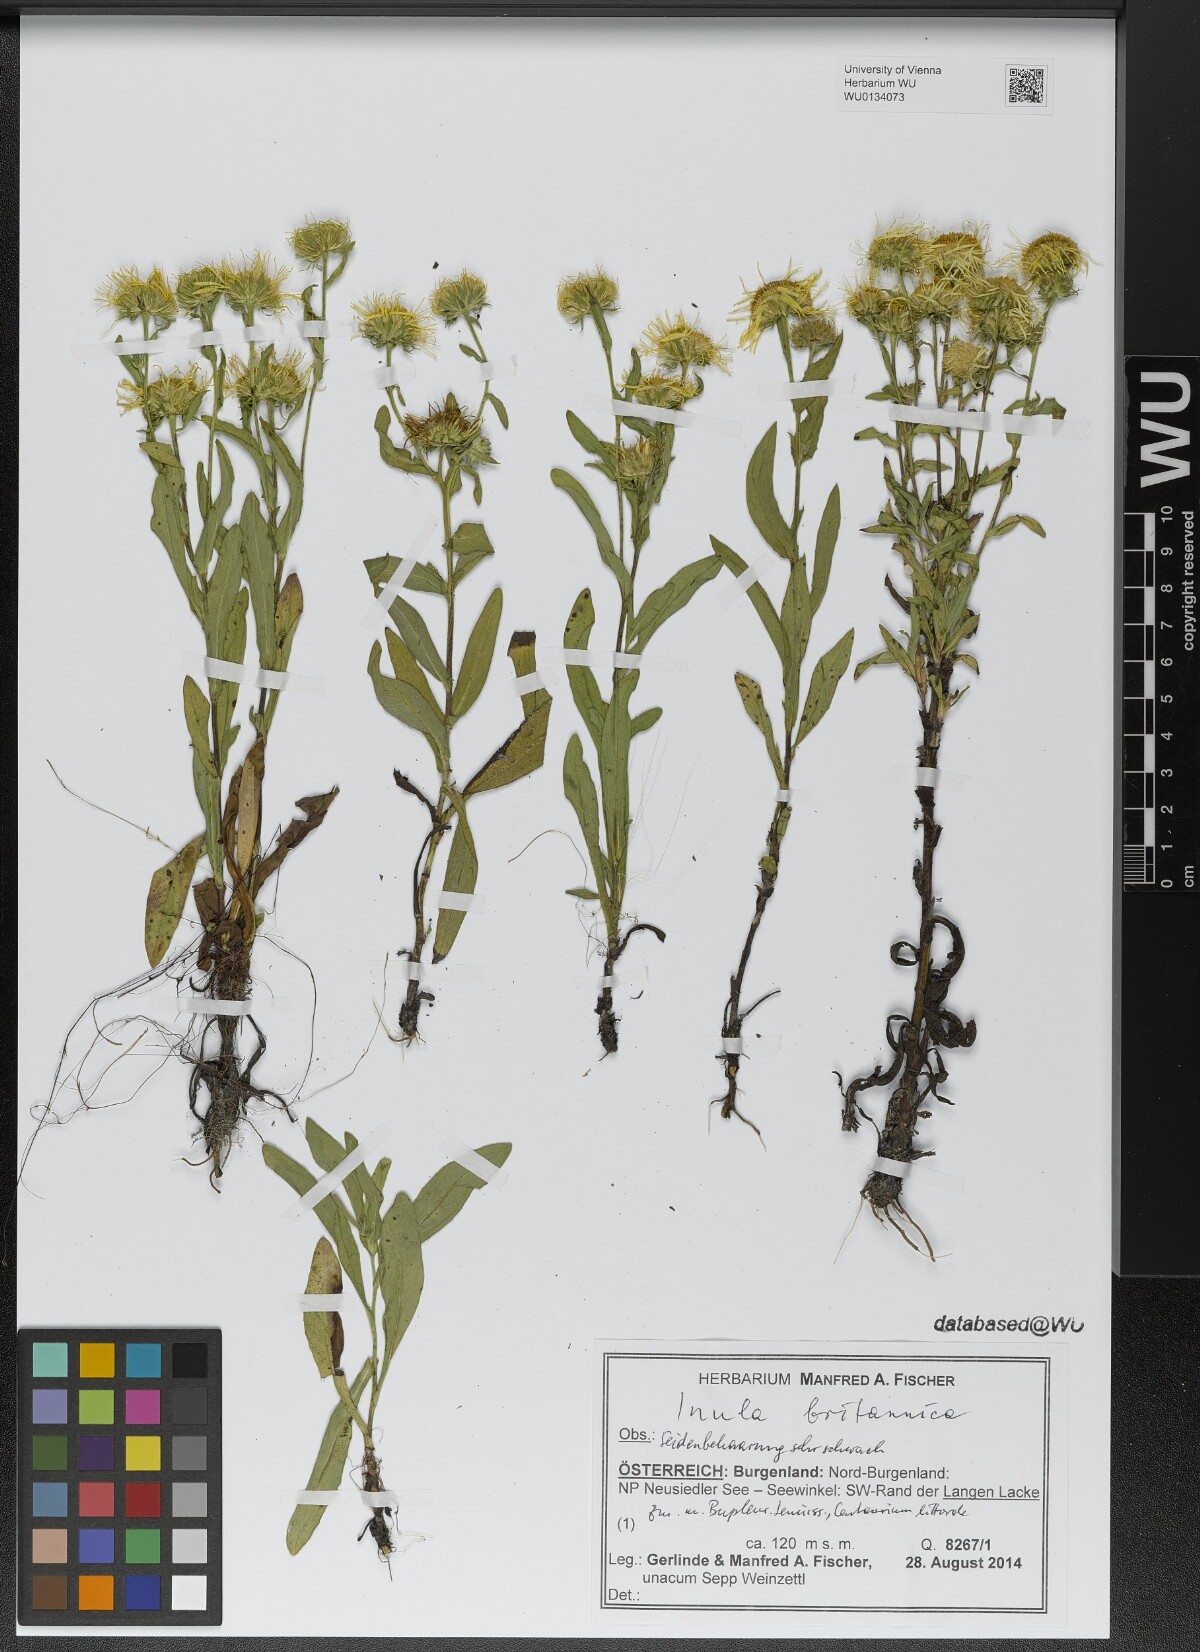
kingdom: Plantae
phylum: Tracheophyta
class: Magnoliopsida
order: Asterales
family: Asteraceae
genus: Pentanema
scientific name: Pentanema britannicum
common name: British elecampane
